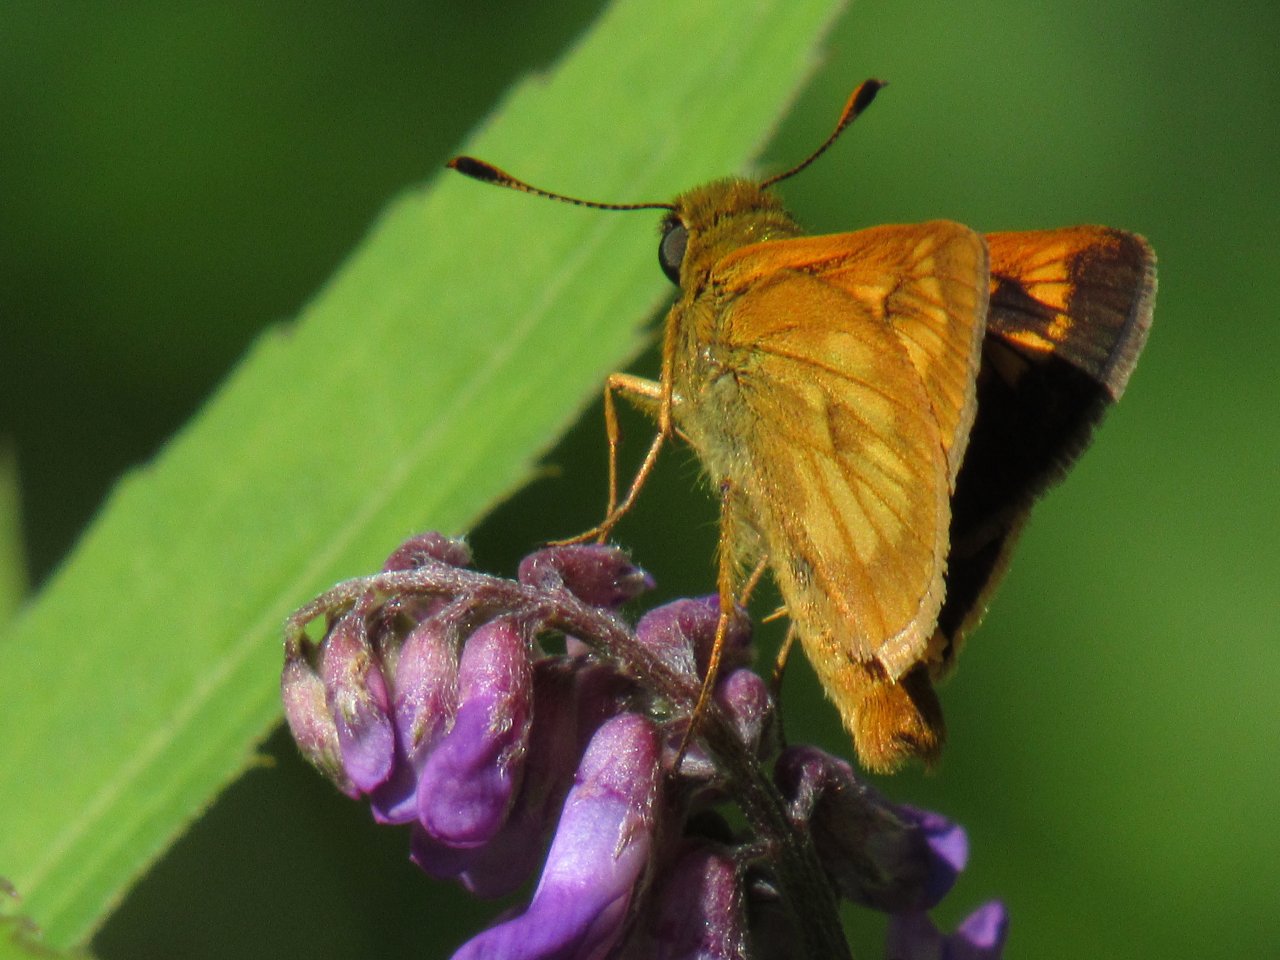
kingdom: Animalia
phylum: Arthropoda
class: Insecta
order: Lepidoptera
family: Hesperiidae
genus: Polites
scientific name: Polites
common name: Long Dash Skipper
